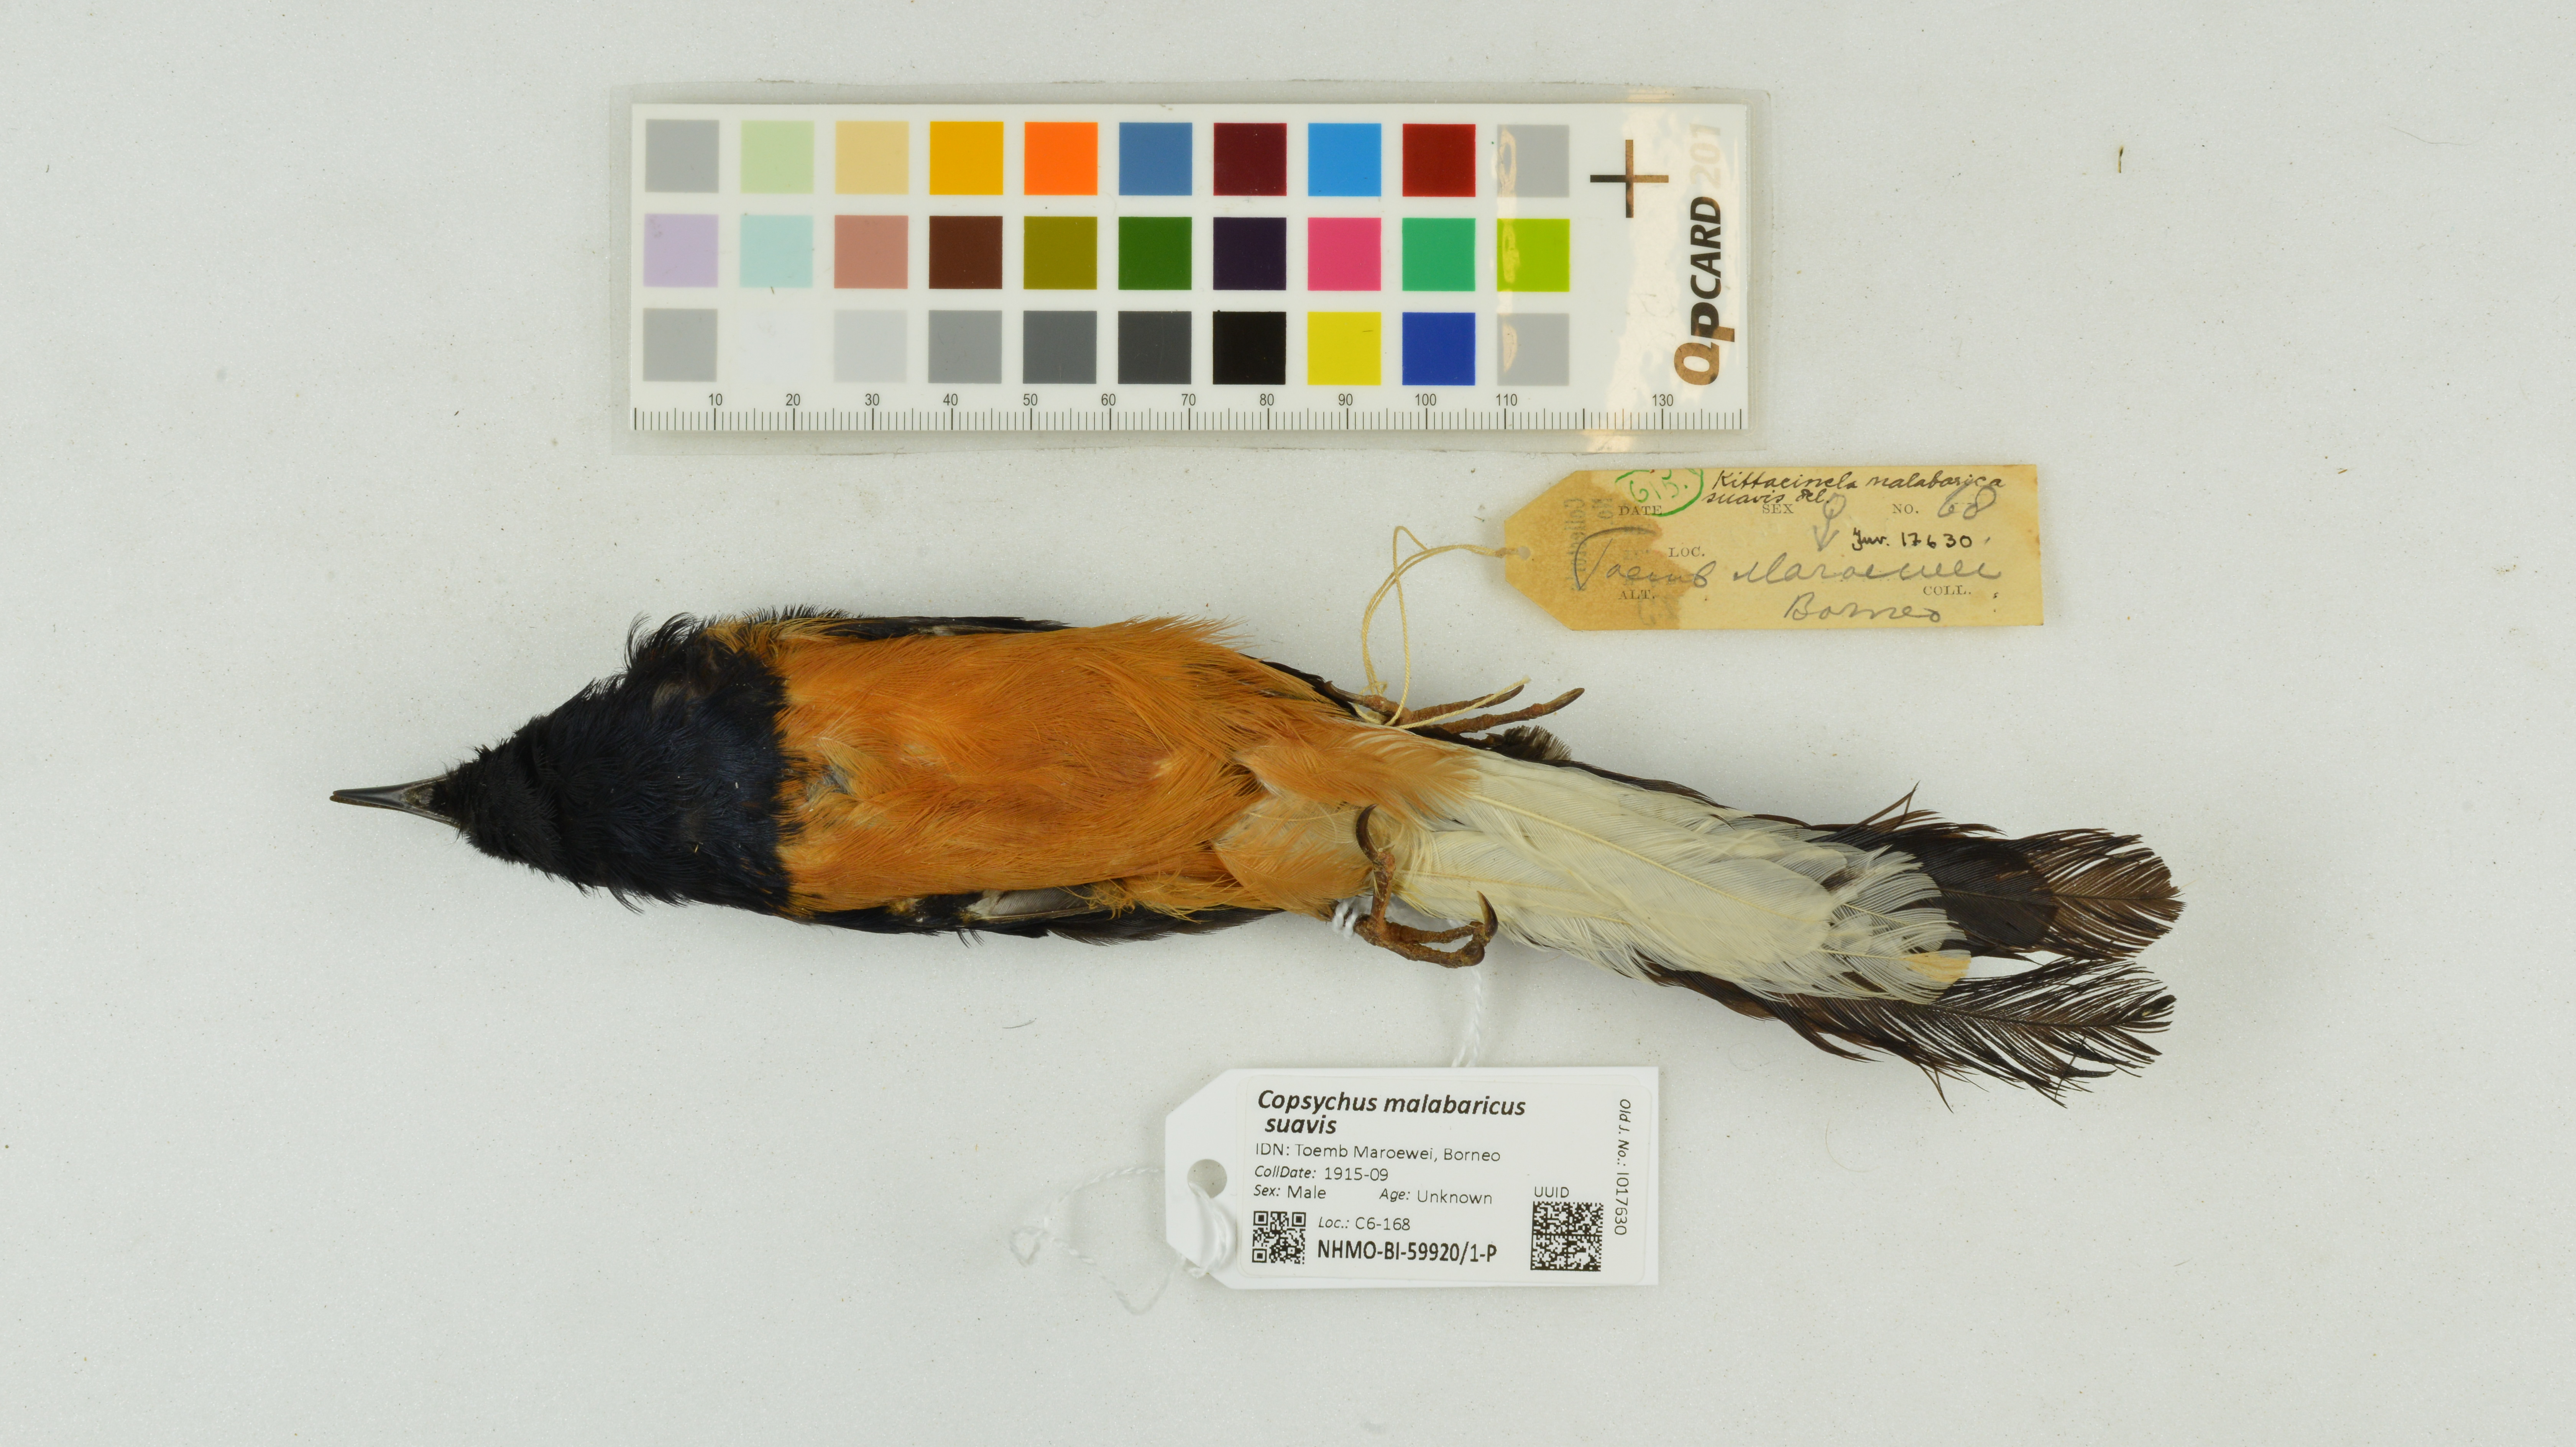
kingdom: Animalia
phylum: Chordata
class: Aves
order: Passeriformes
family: Muscicapidae
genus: Copsychus
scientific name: Copsychus malabaricus
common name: White-rumped shama
